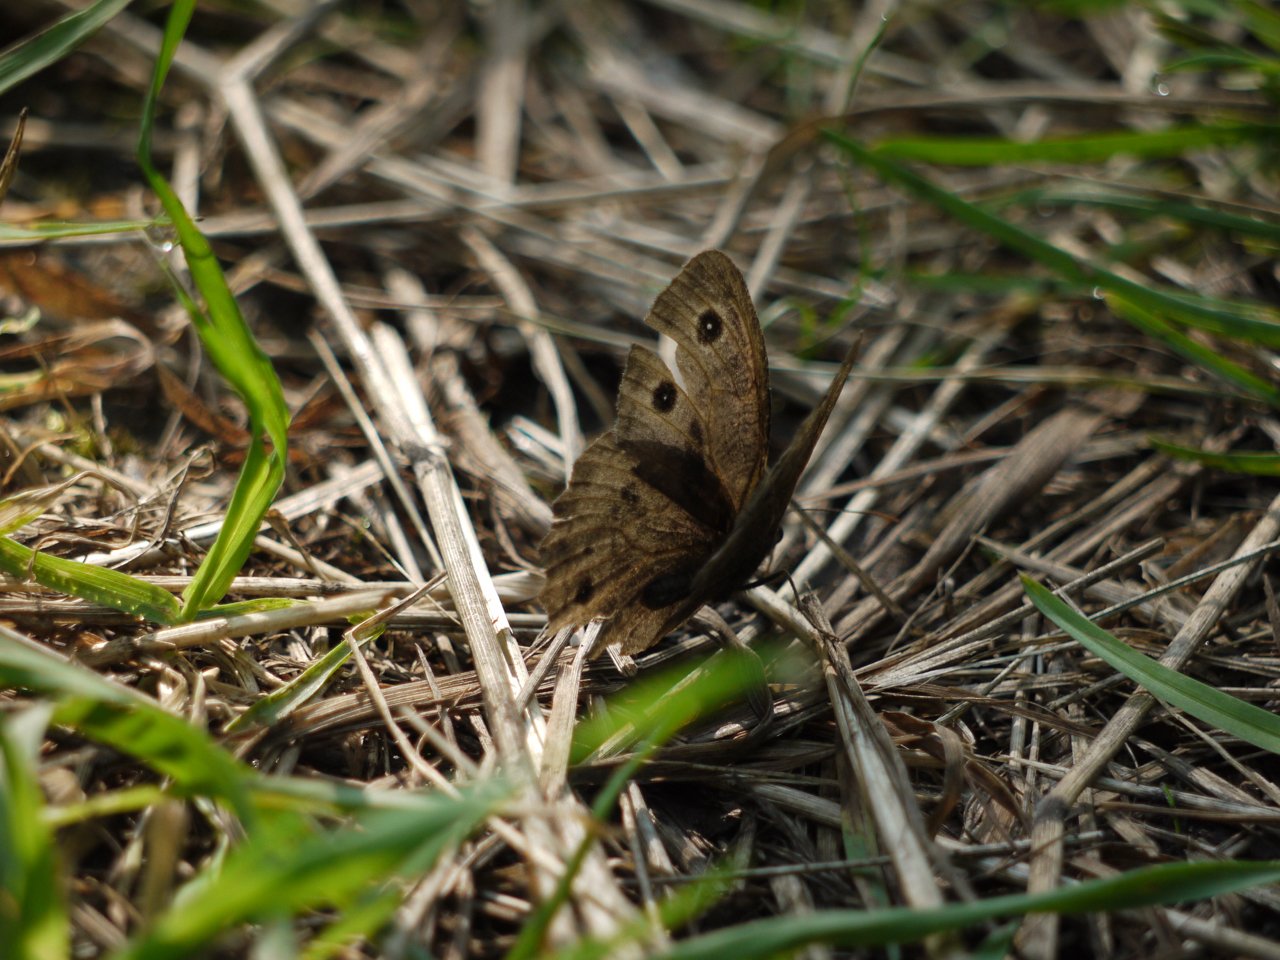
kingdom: Animalia
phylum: Arthropoda
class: Insecta
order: Lepidoptera
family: Nymphalidae
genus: Cercyonis
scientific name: Cercyonis pegala
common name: Common Wood-Nymph
